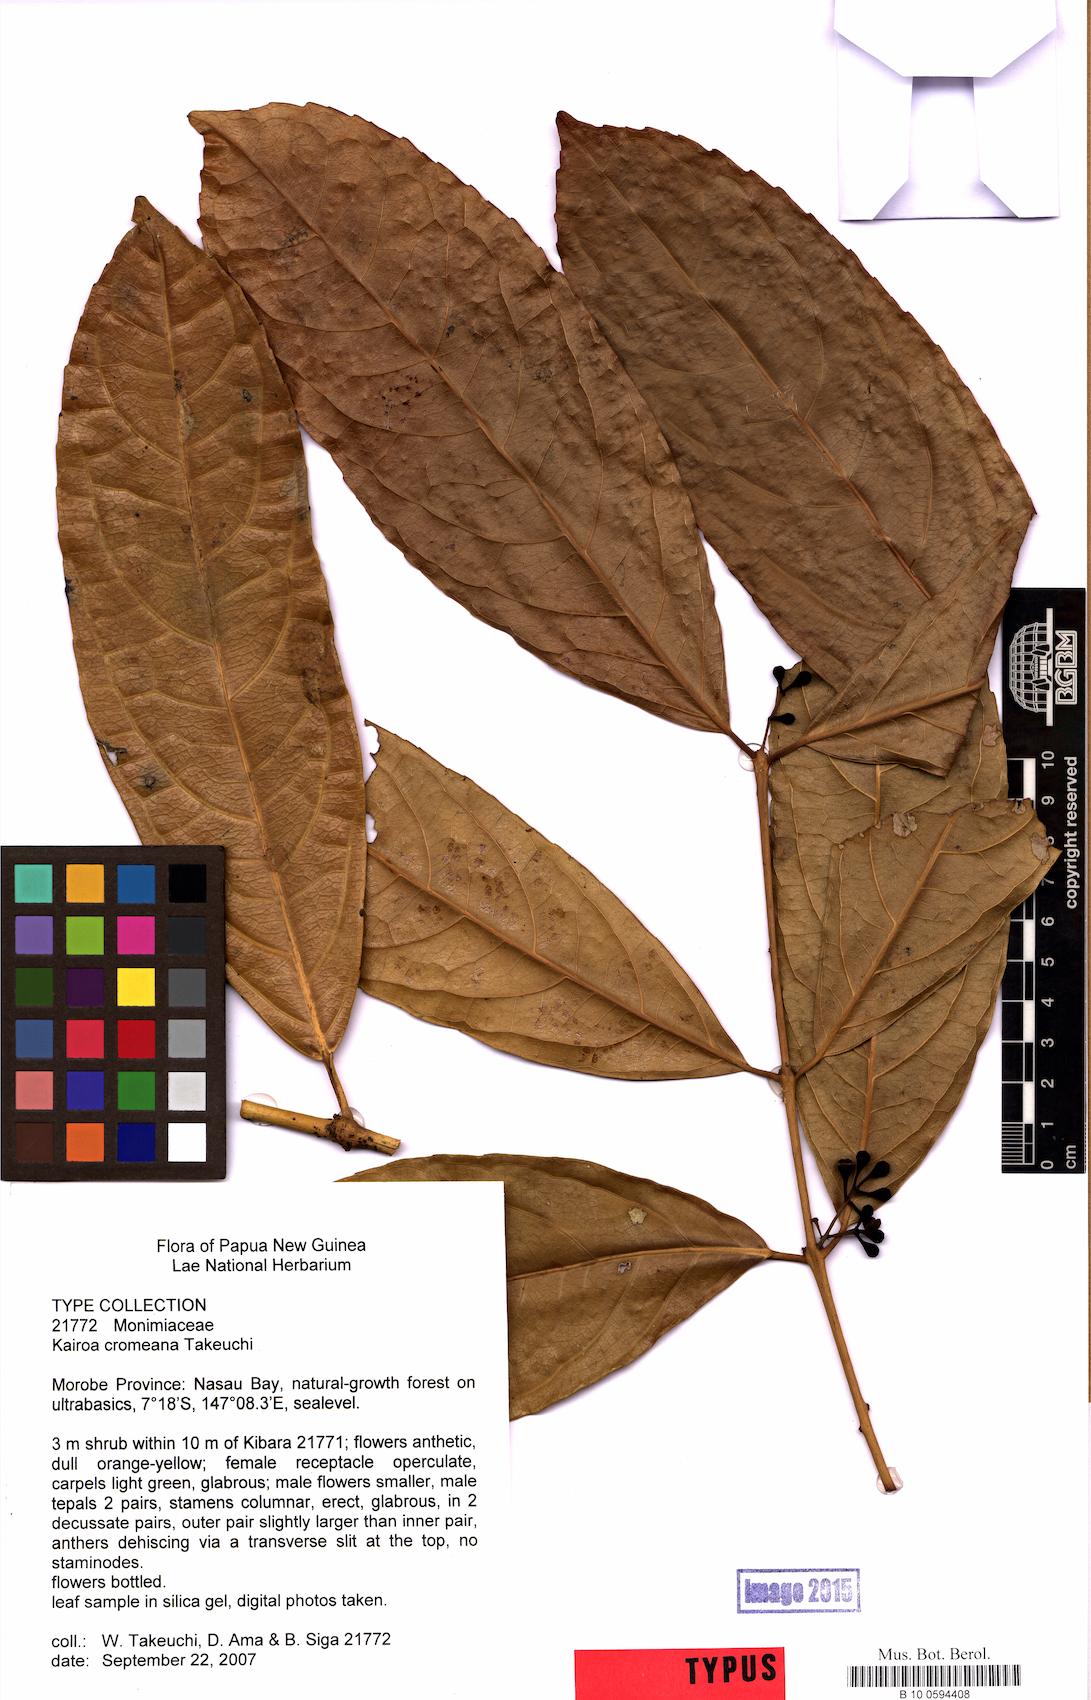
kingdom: Plantae
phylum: Tracheophyta
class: Magnoliopsida
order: Laurales
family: Monimiaceae
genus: Kairoa
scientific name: Kairoa cromeana
